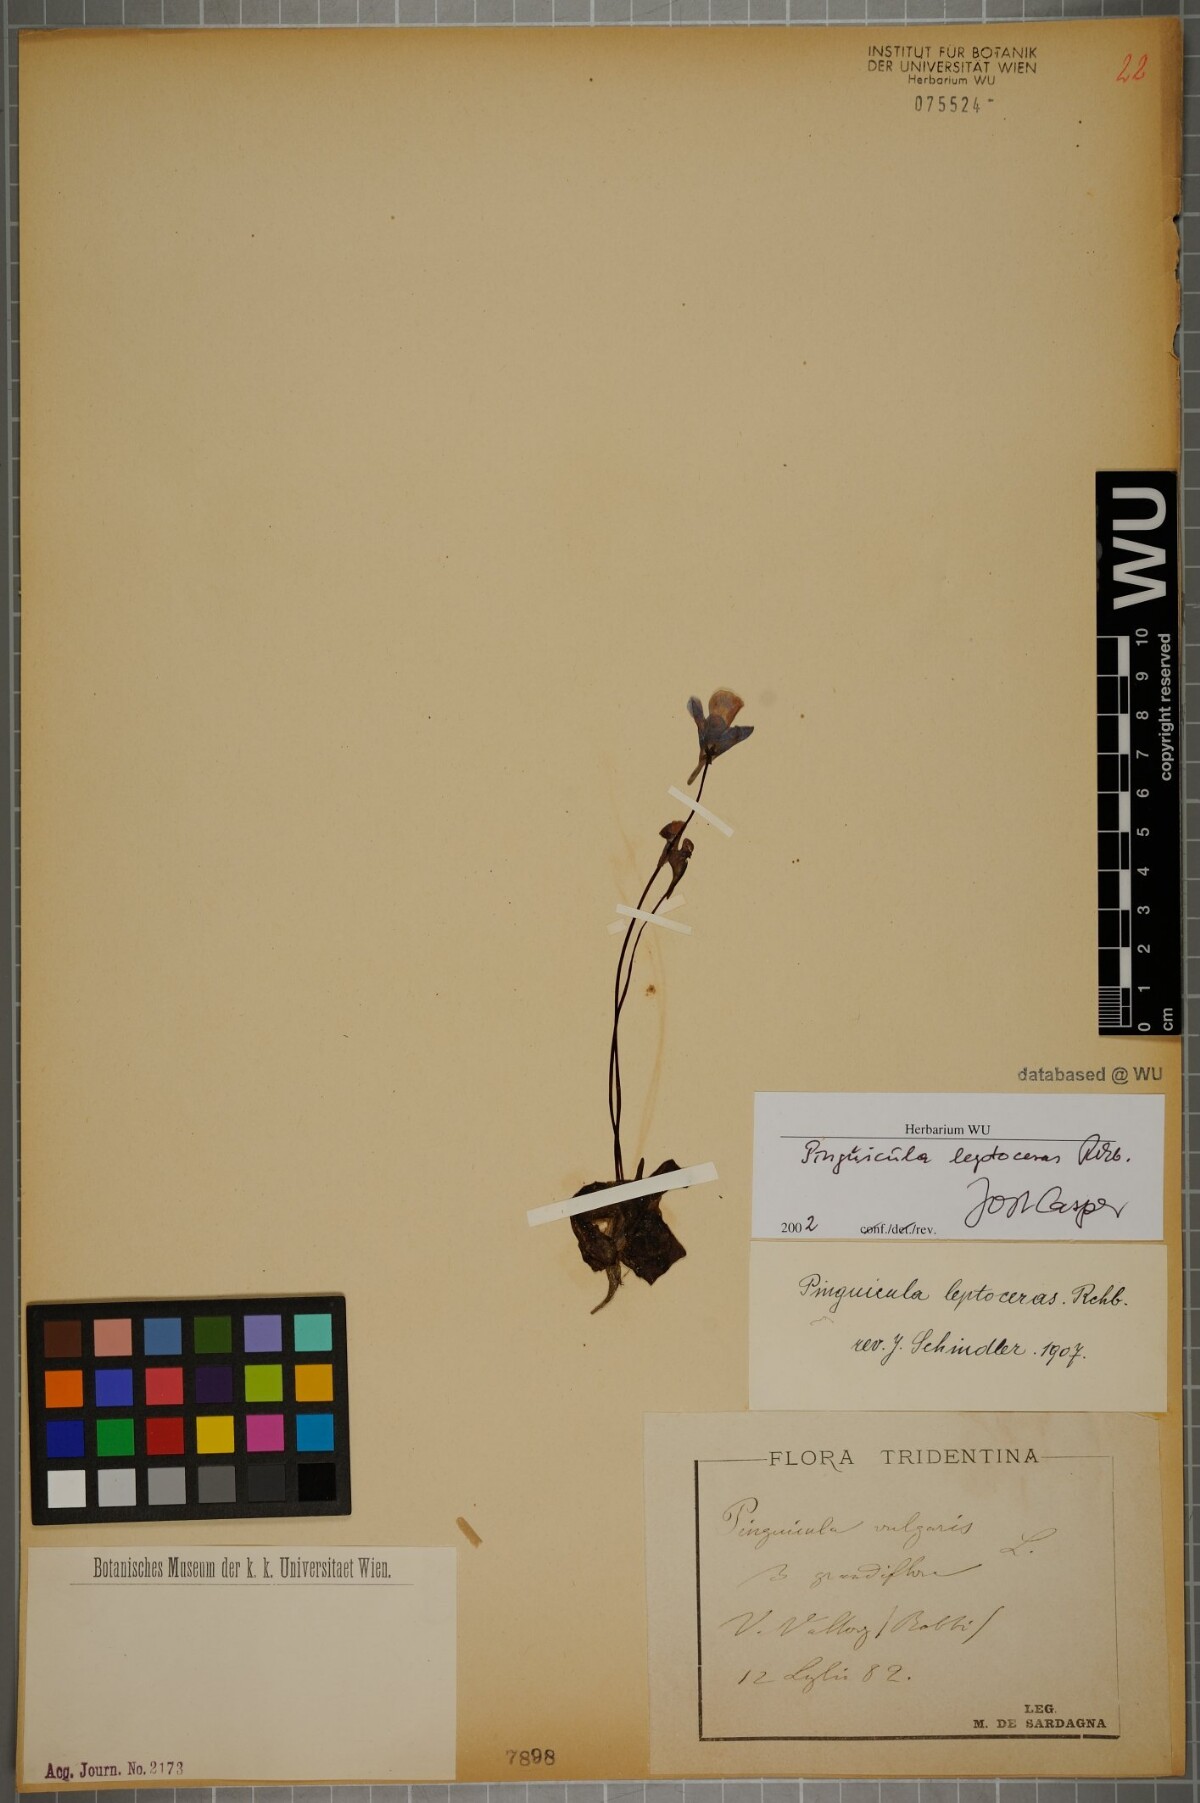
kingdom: Plantae
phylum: Tracheophyta
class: Magnoliopsida
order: Lamiales
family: Lentibulariaceae
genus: Pinguicula
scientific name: Pinguicula leptoceras
